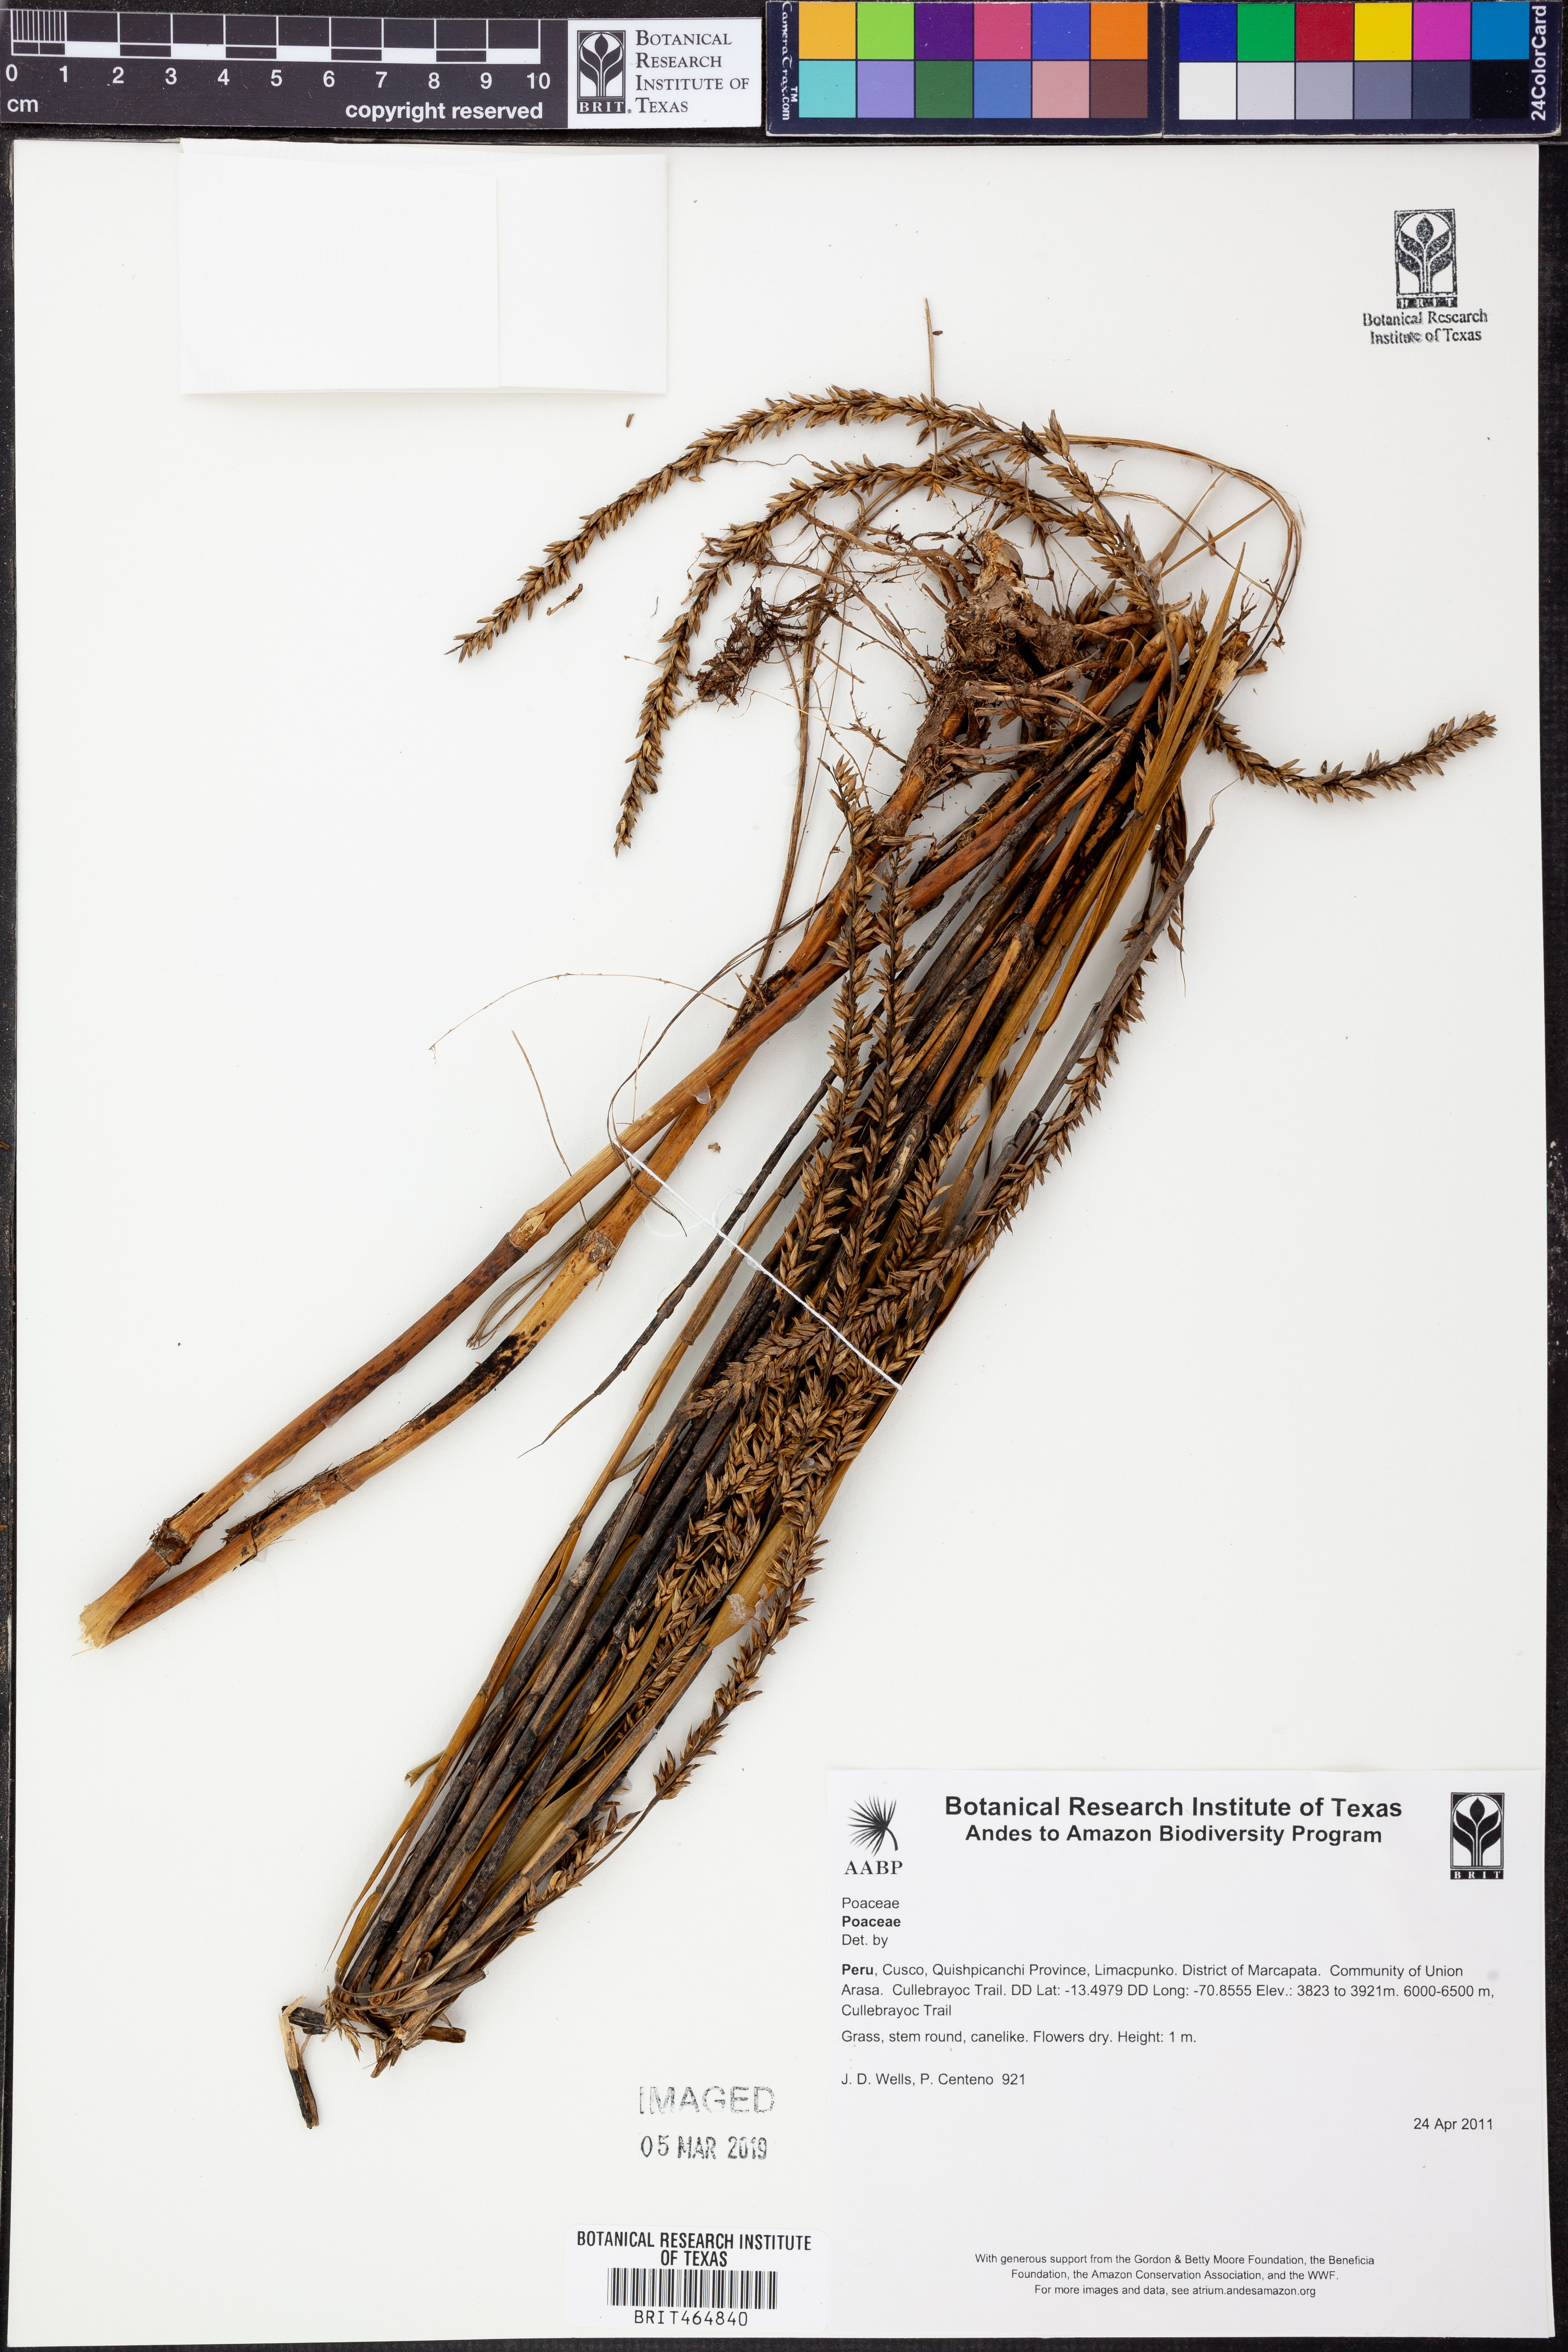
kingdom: Plantae
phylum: Tracheophyta
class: Liliopsida
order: Poales
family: Poaceae
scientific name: Poaceae
